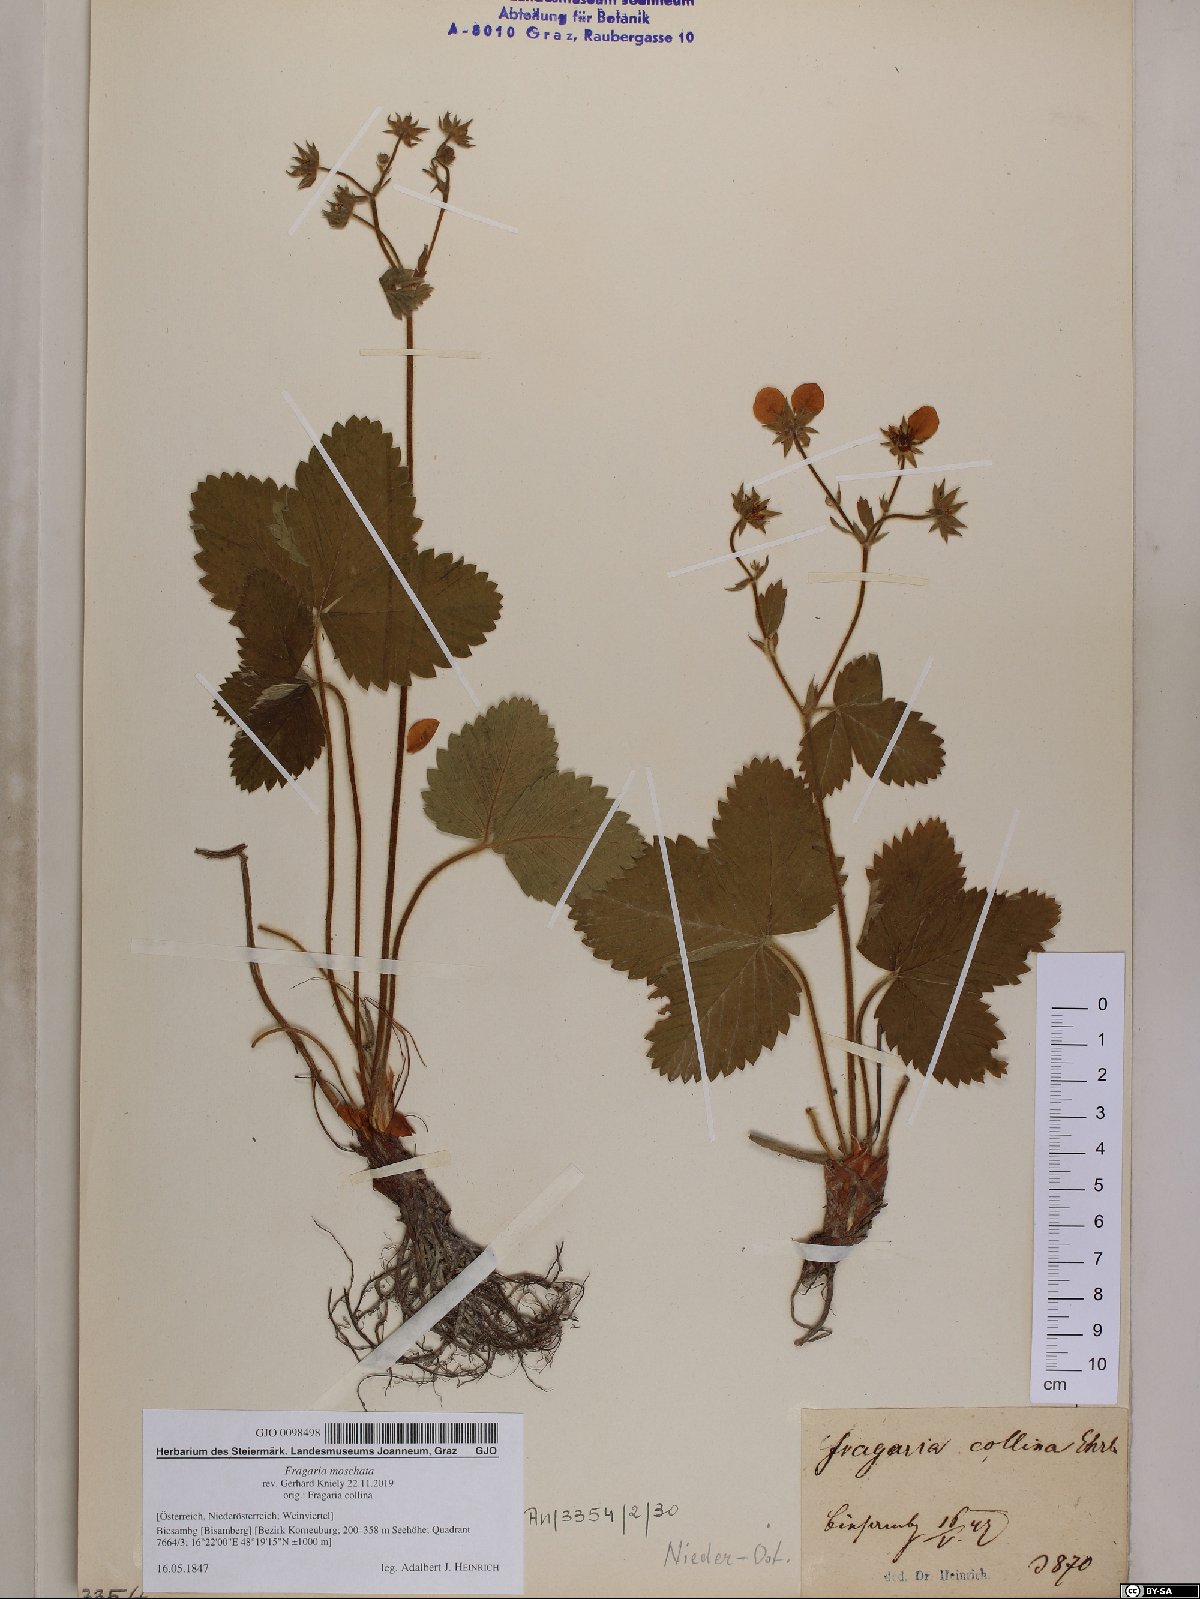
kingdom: Plantae
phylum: Tracheophyta
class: Magnoliopsida
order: Rosales
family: Rosaceae
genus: Fragaria
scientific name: Fragaria moschata
